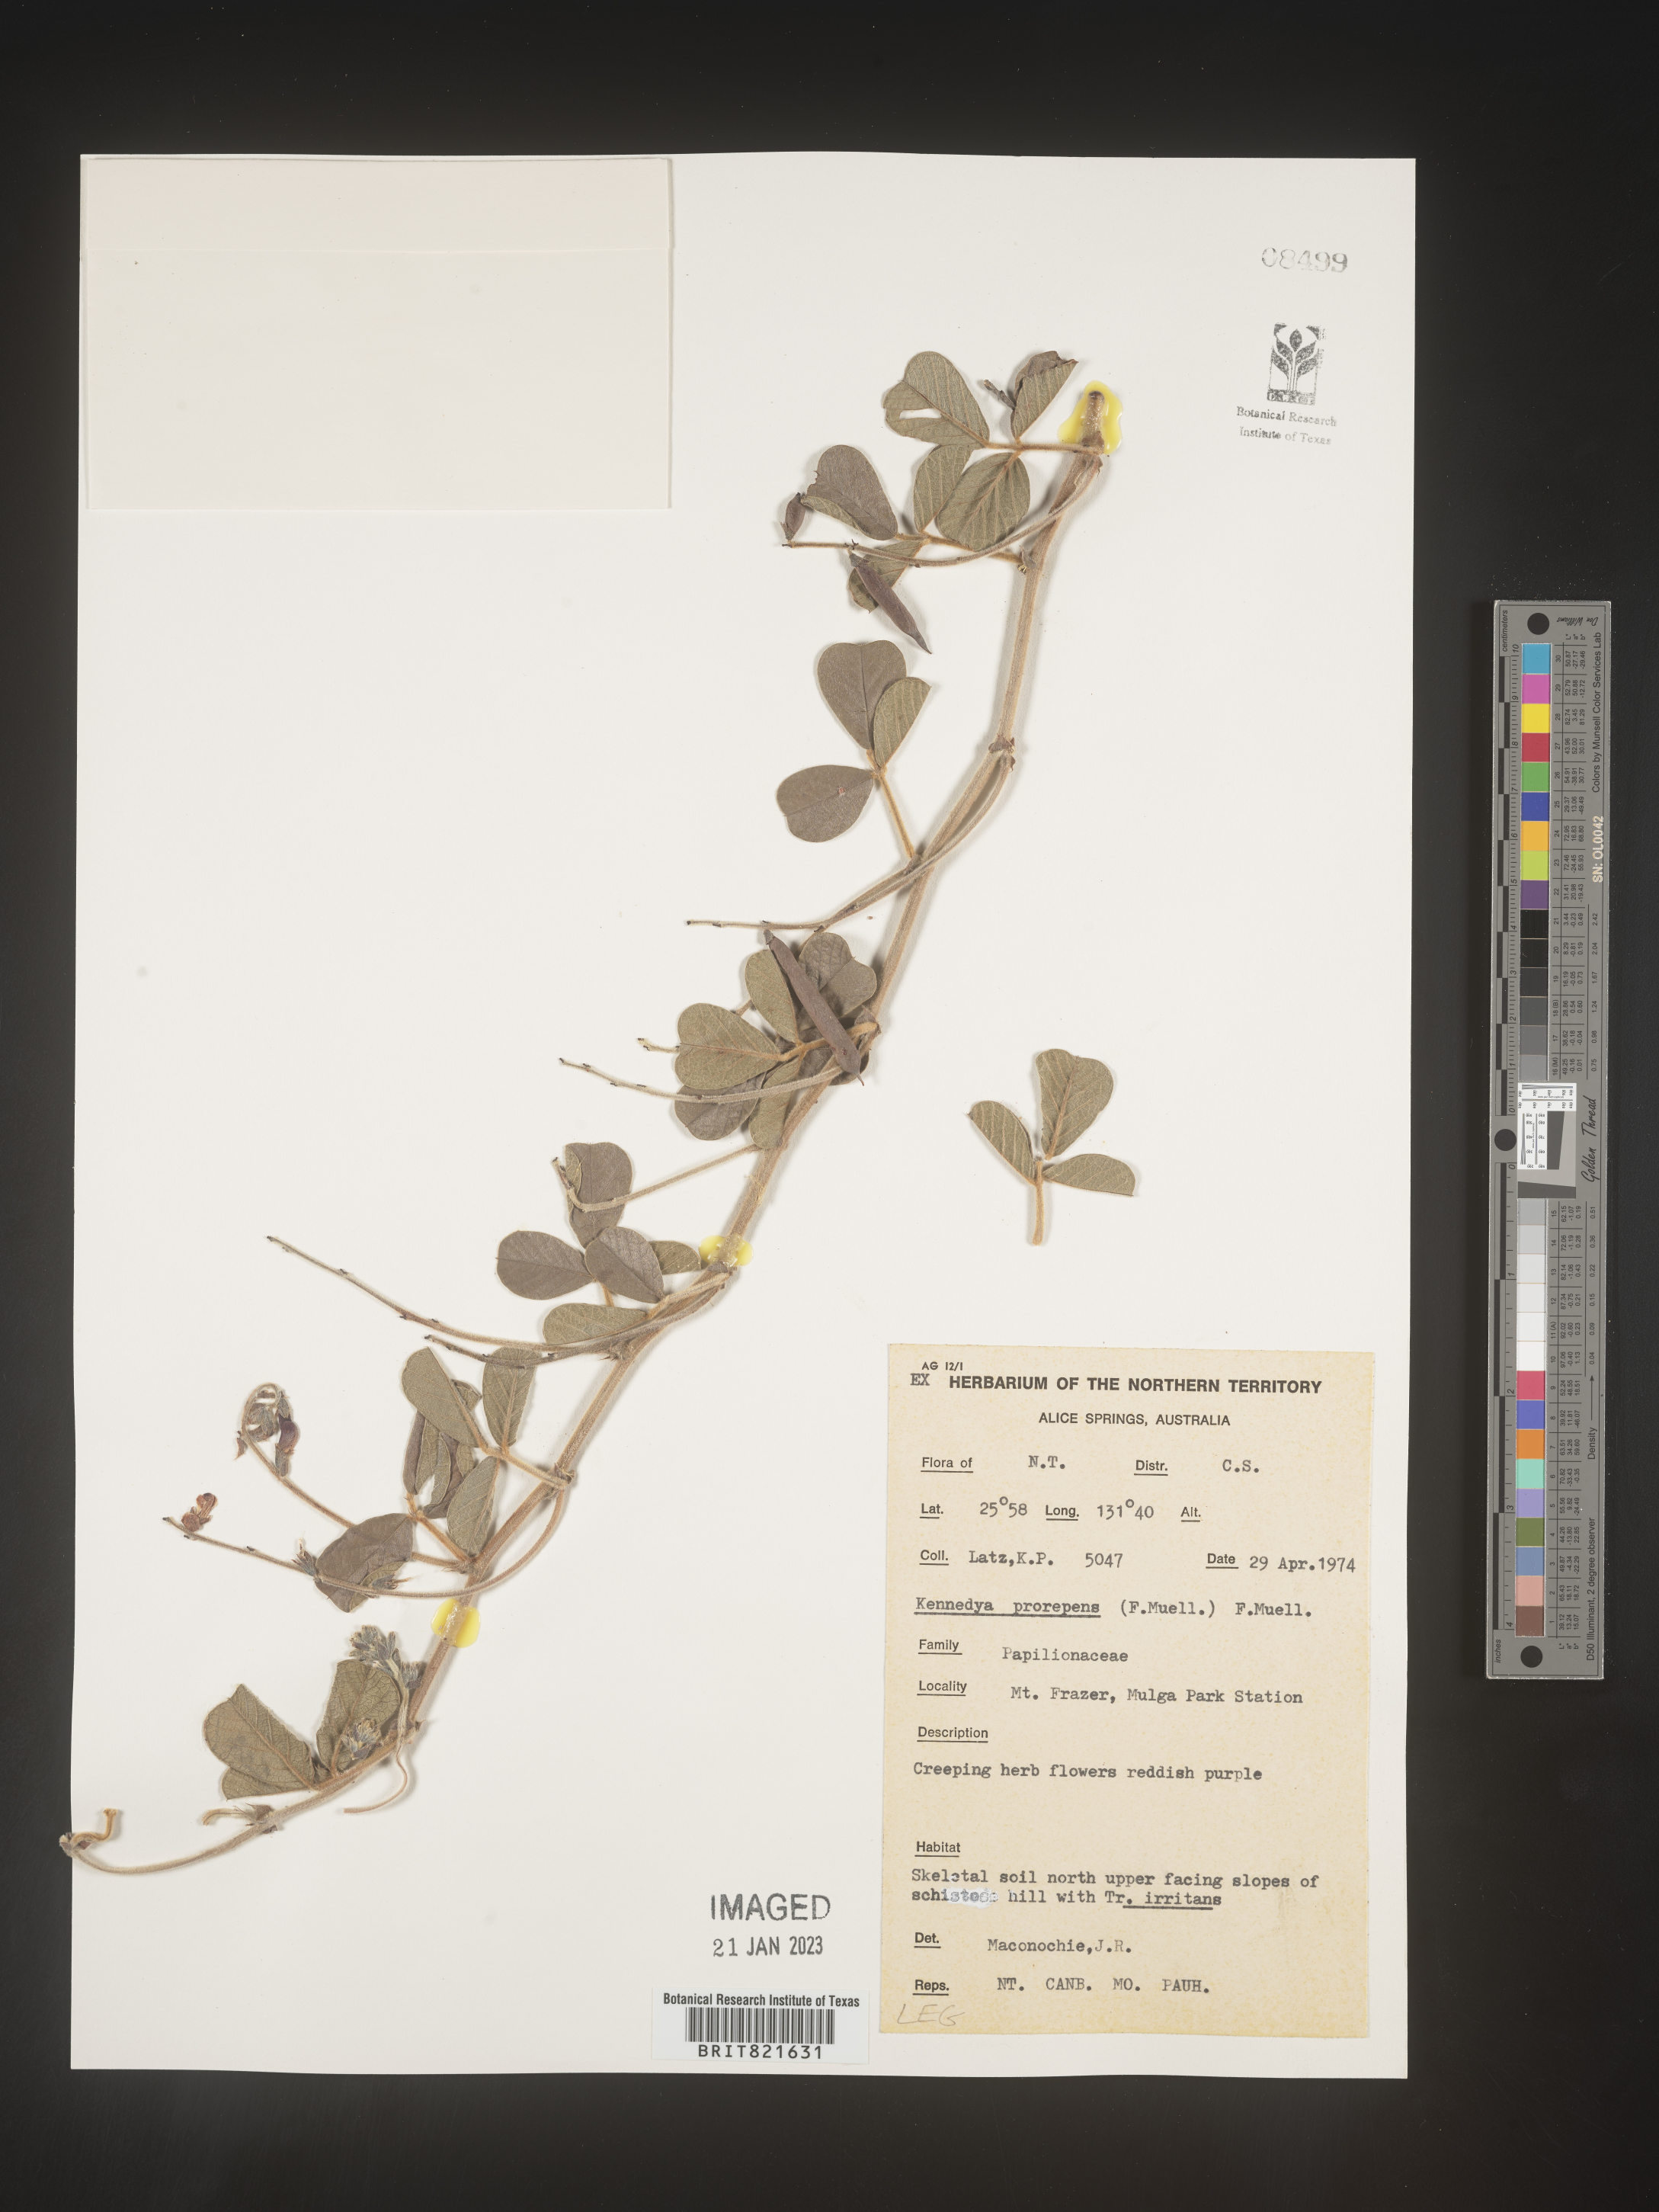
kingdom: Plantae
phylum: Tracheophyta
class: Magnoliopsida
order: Fabales
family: Fabaceae
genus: Kennedya
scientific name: Kennedya
